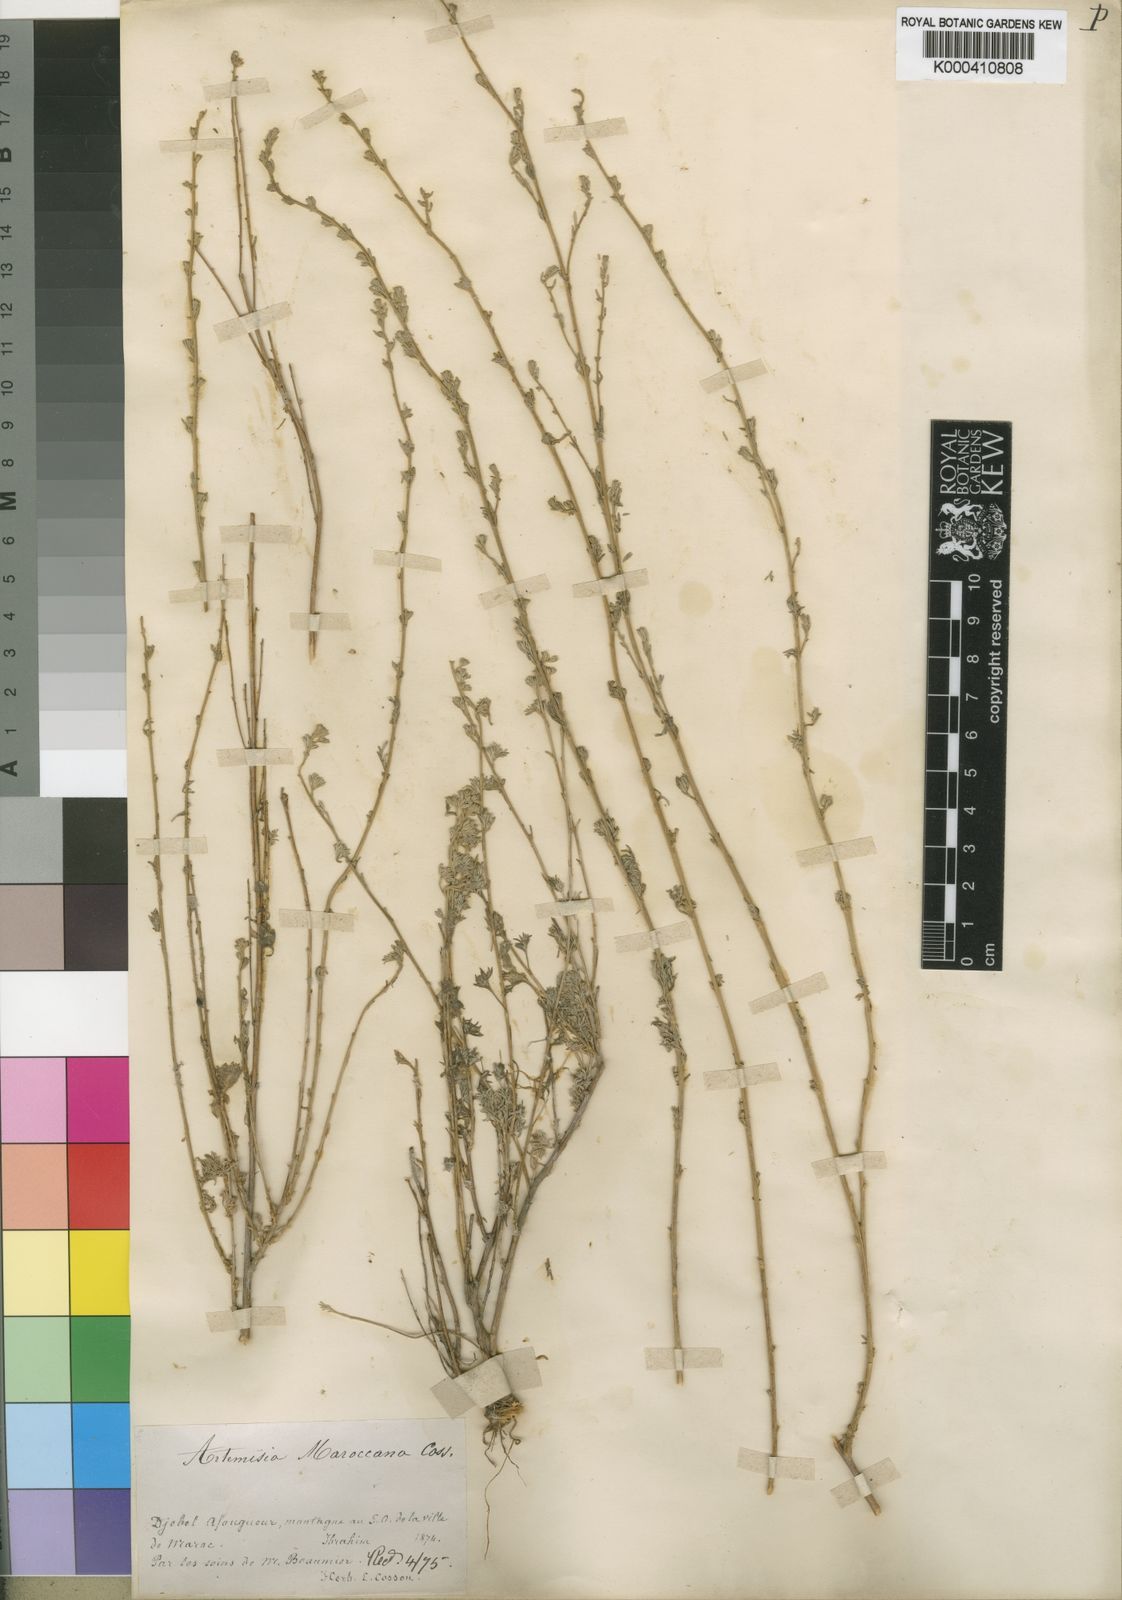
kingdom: Plantae
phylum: Tracheophyta
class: Magnoliopsida
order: Asterales
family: Asteraceae
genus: Artemisia
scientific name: Artemisia maroccana
